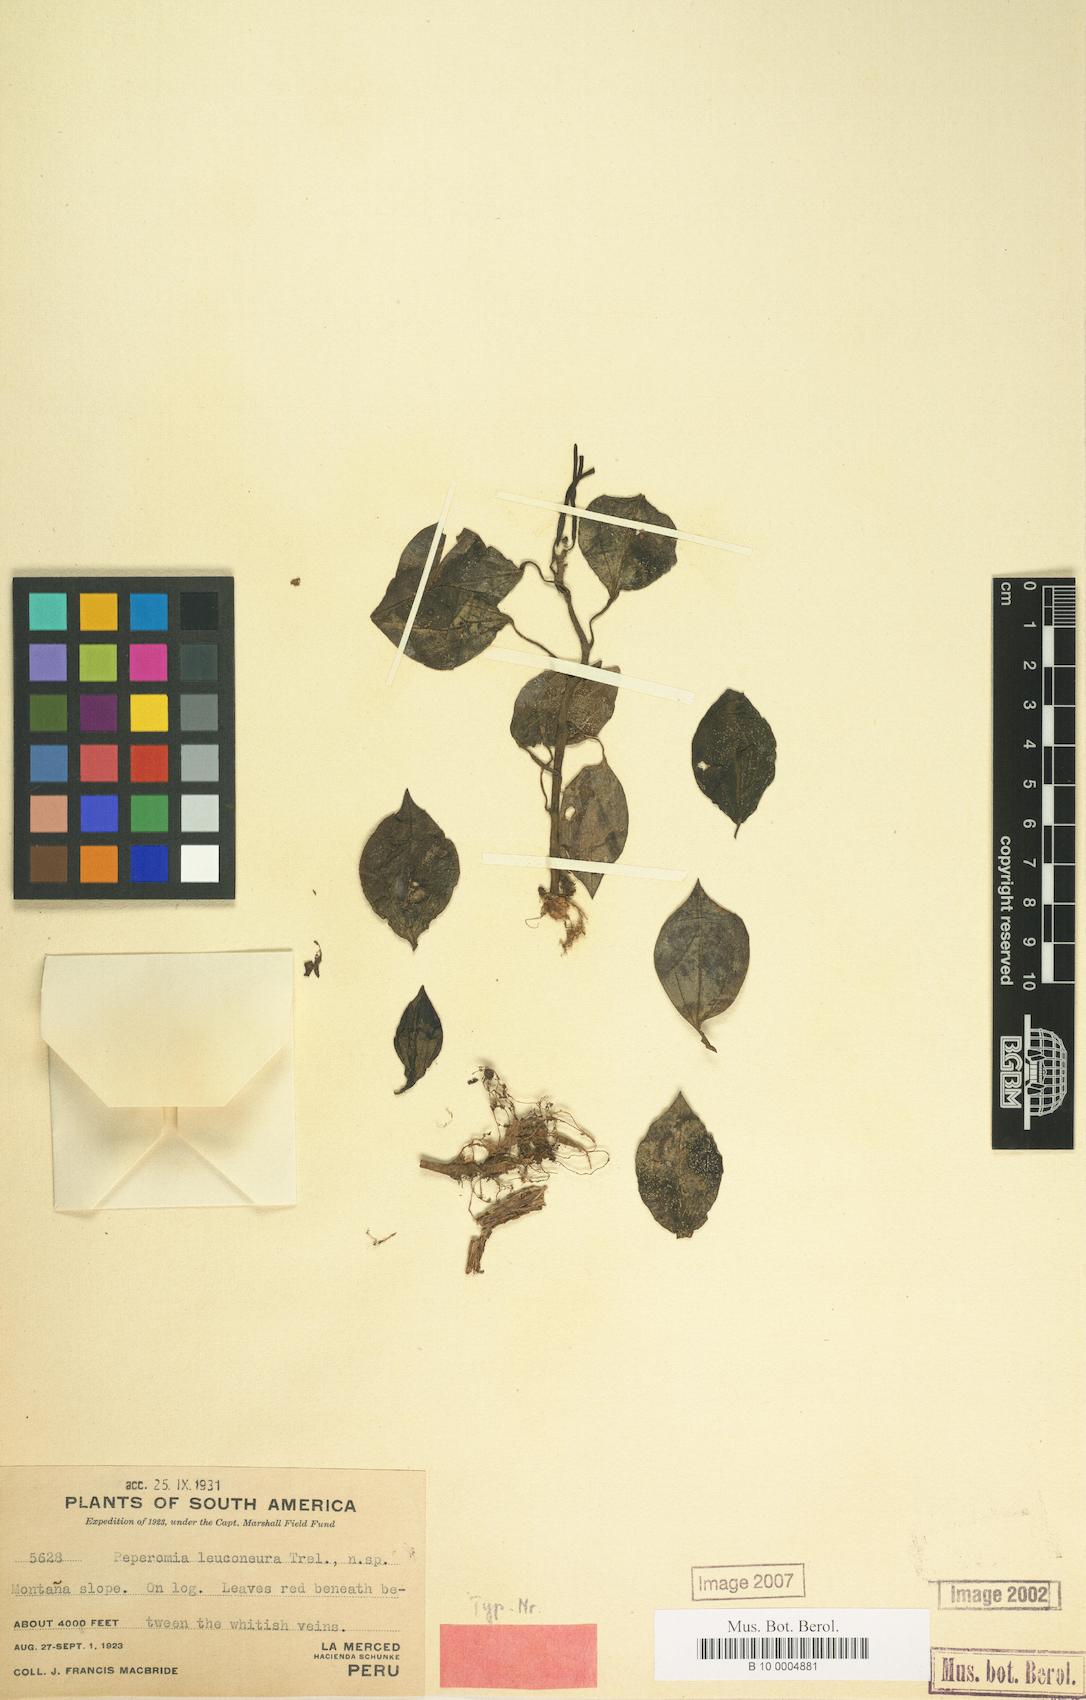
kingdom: Plantae
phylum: Tracheophyta
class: Magnoliopsida
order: Piperales
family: Piperaceae
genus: Peperomia
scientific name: Peperomia trinervis
